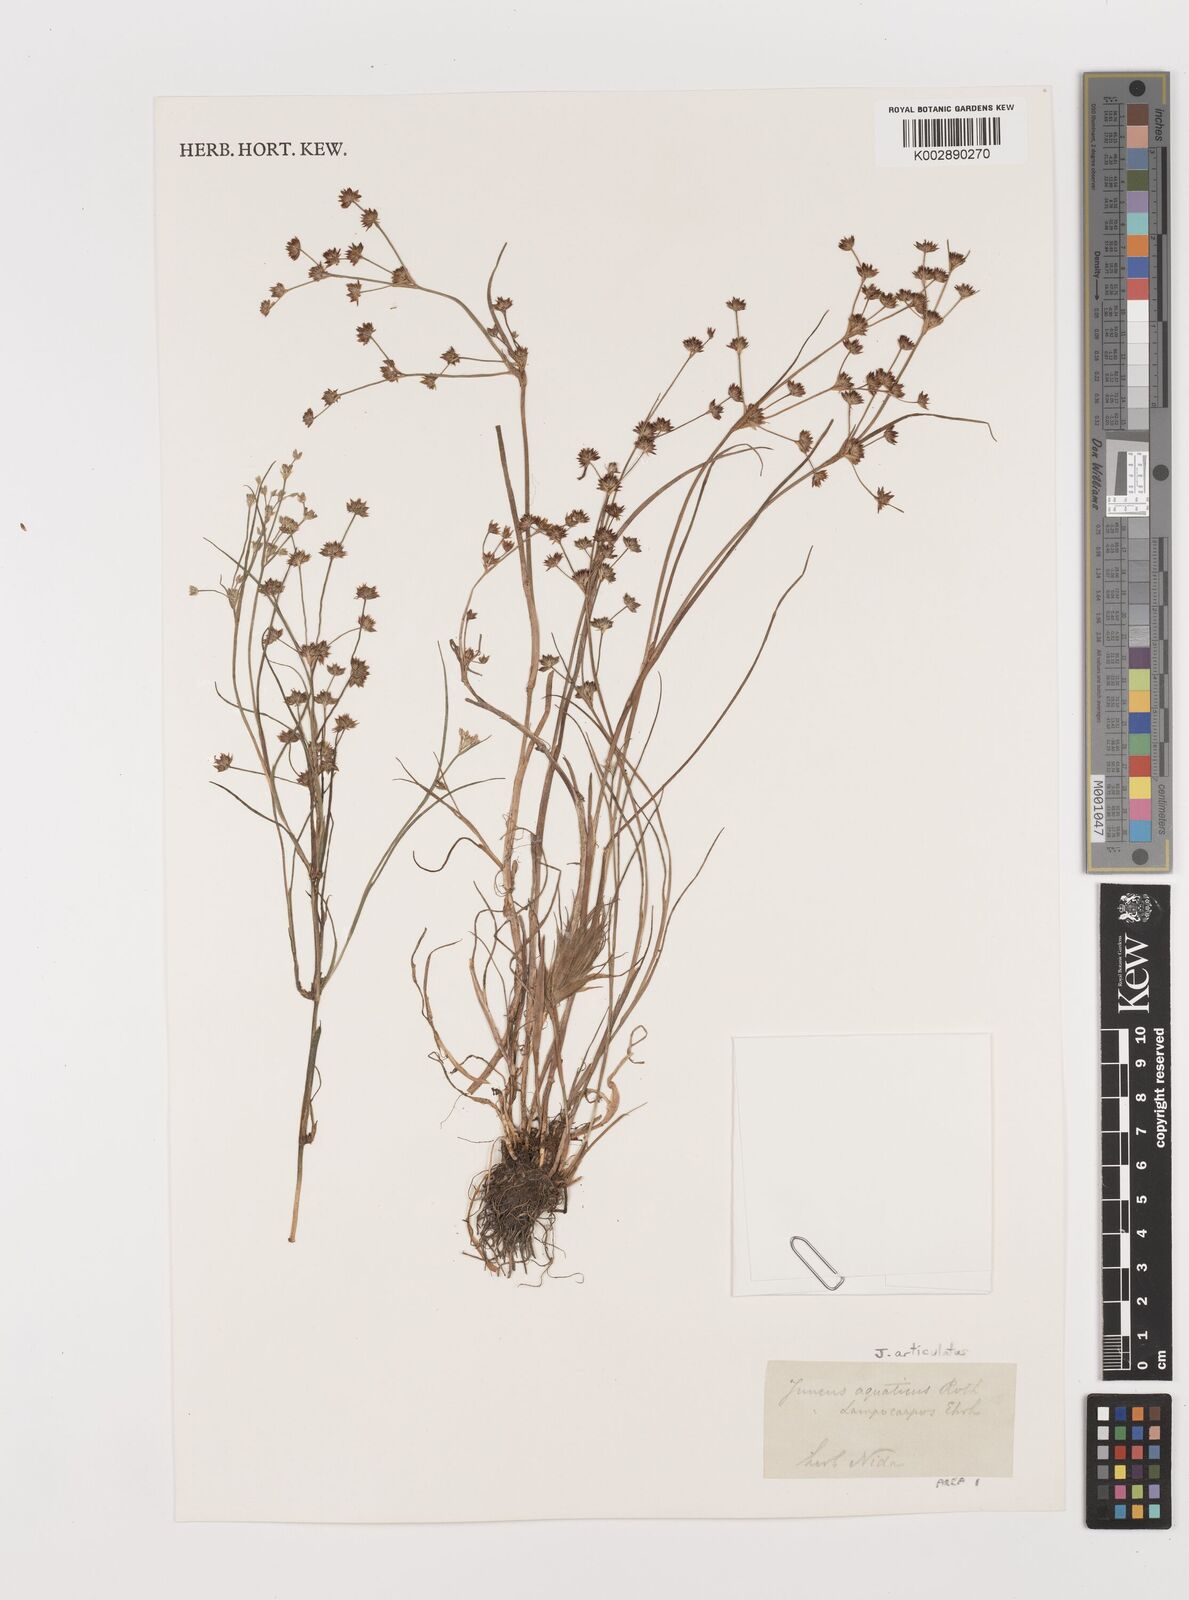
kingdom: Plantae
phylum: Tracheophyta
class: Liliopsida
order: Poales
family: Juncaceae
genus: Juncus
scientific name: Juncus articulatus
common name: Jointed rush
